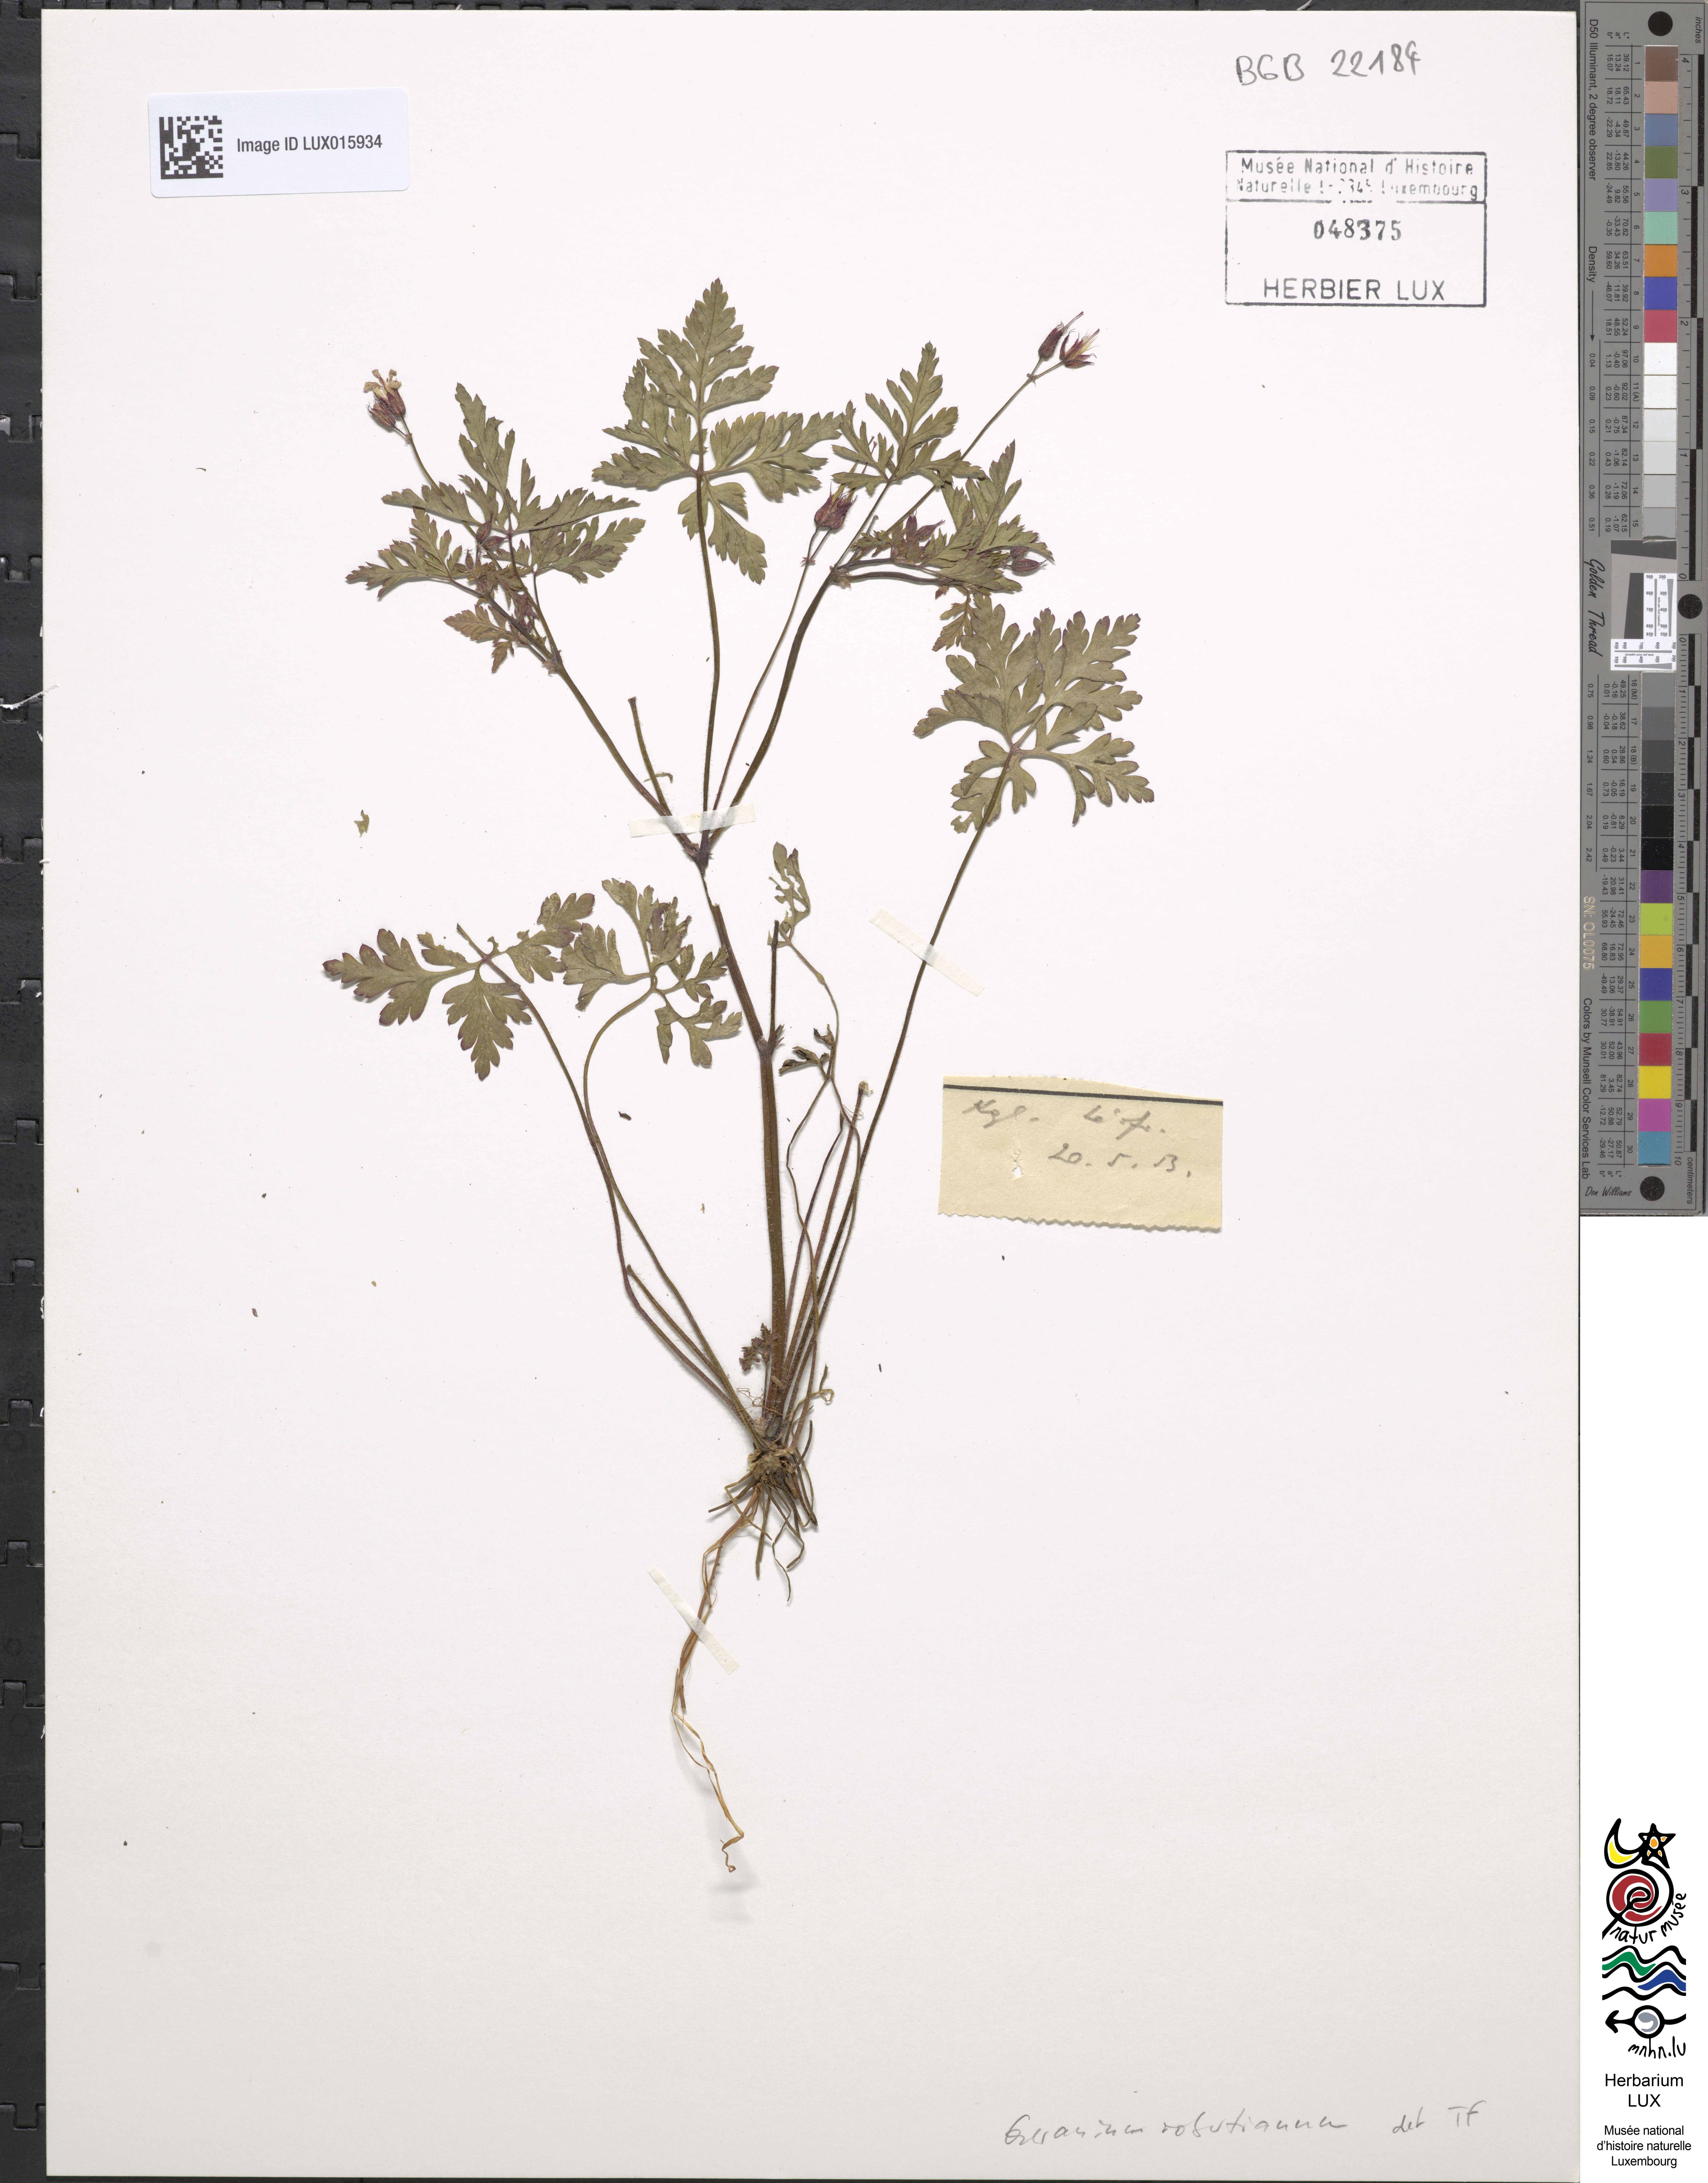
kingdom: Plantae
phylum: Tracheophyta
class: Magnoliopsida
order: Geraniales
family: Geraniaceae
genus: Geranium
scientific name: Geranium robertianum
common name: Herb-robert
